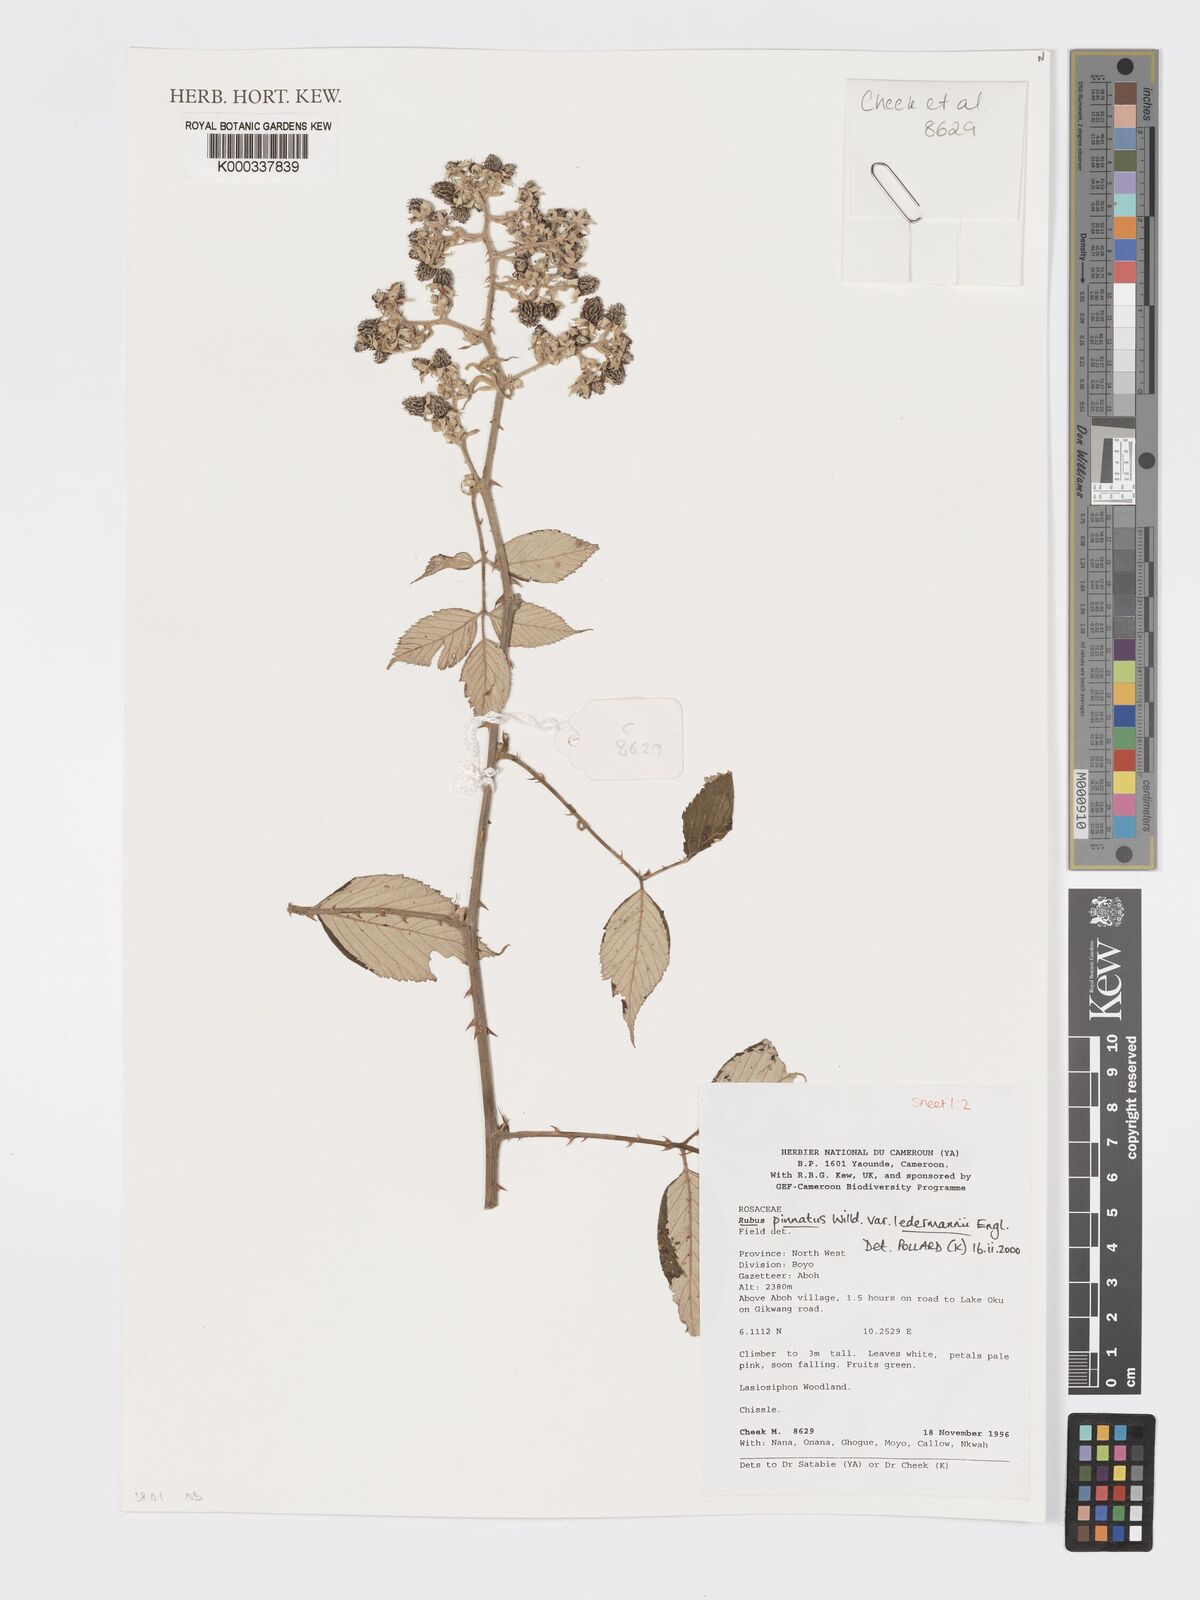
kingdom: Plantae
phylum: Tracheophyta
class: Magnoliopsida
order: Rosales
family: Rosaceae
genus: Rubus
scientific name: Rubus pinnatus
